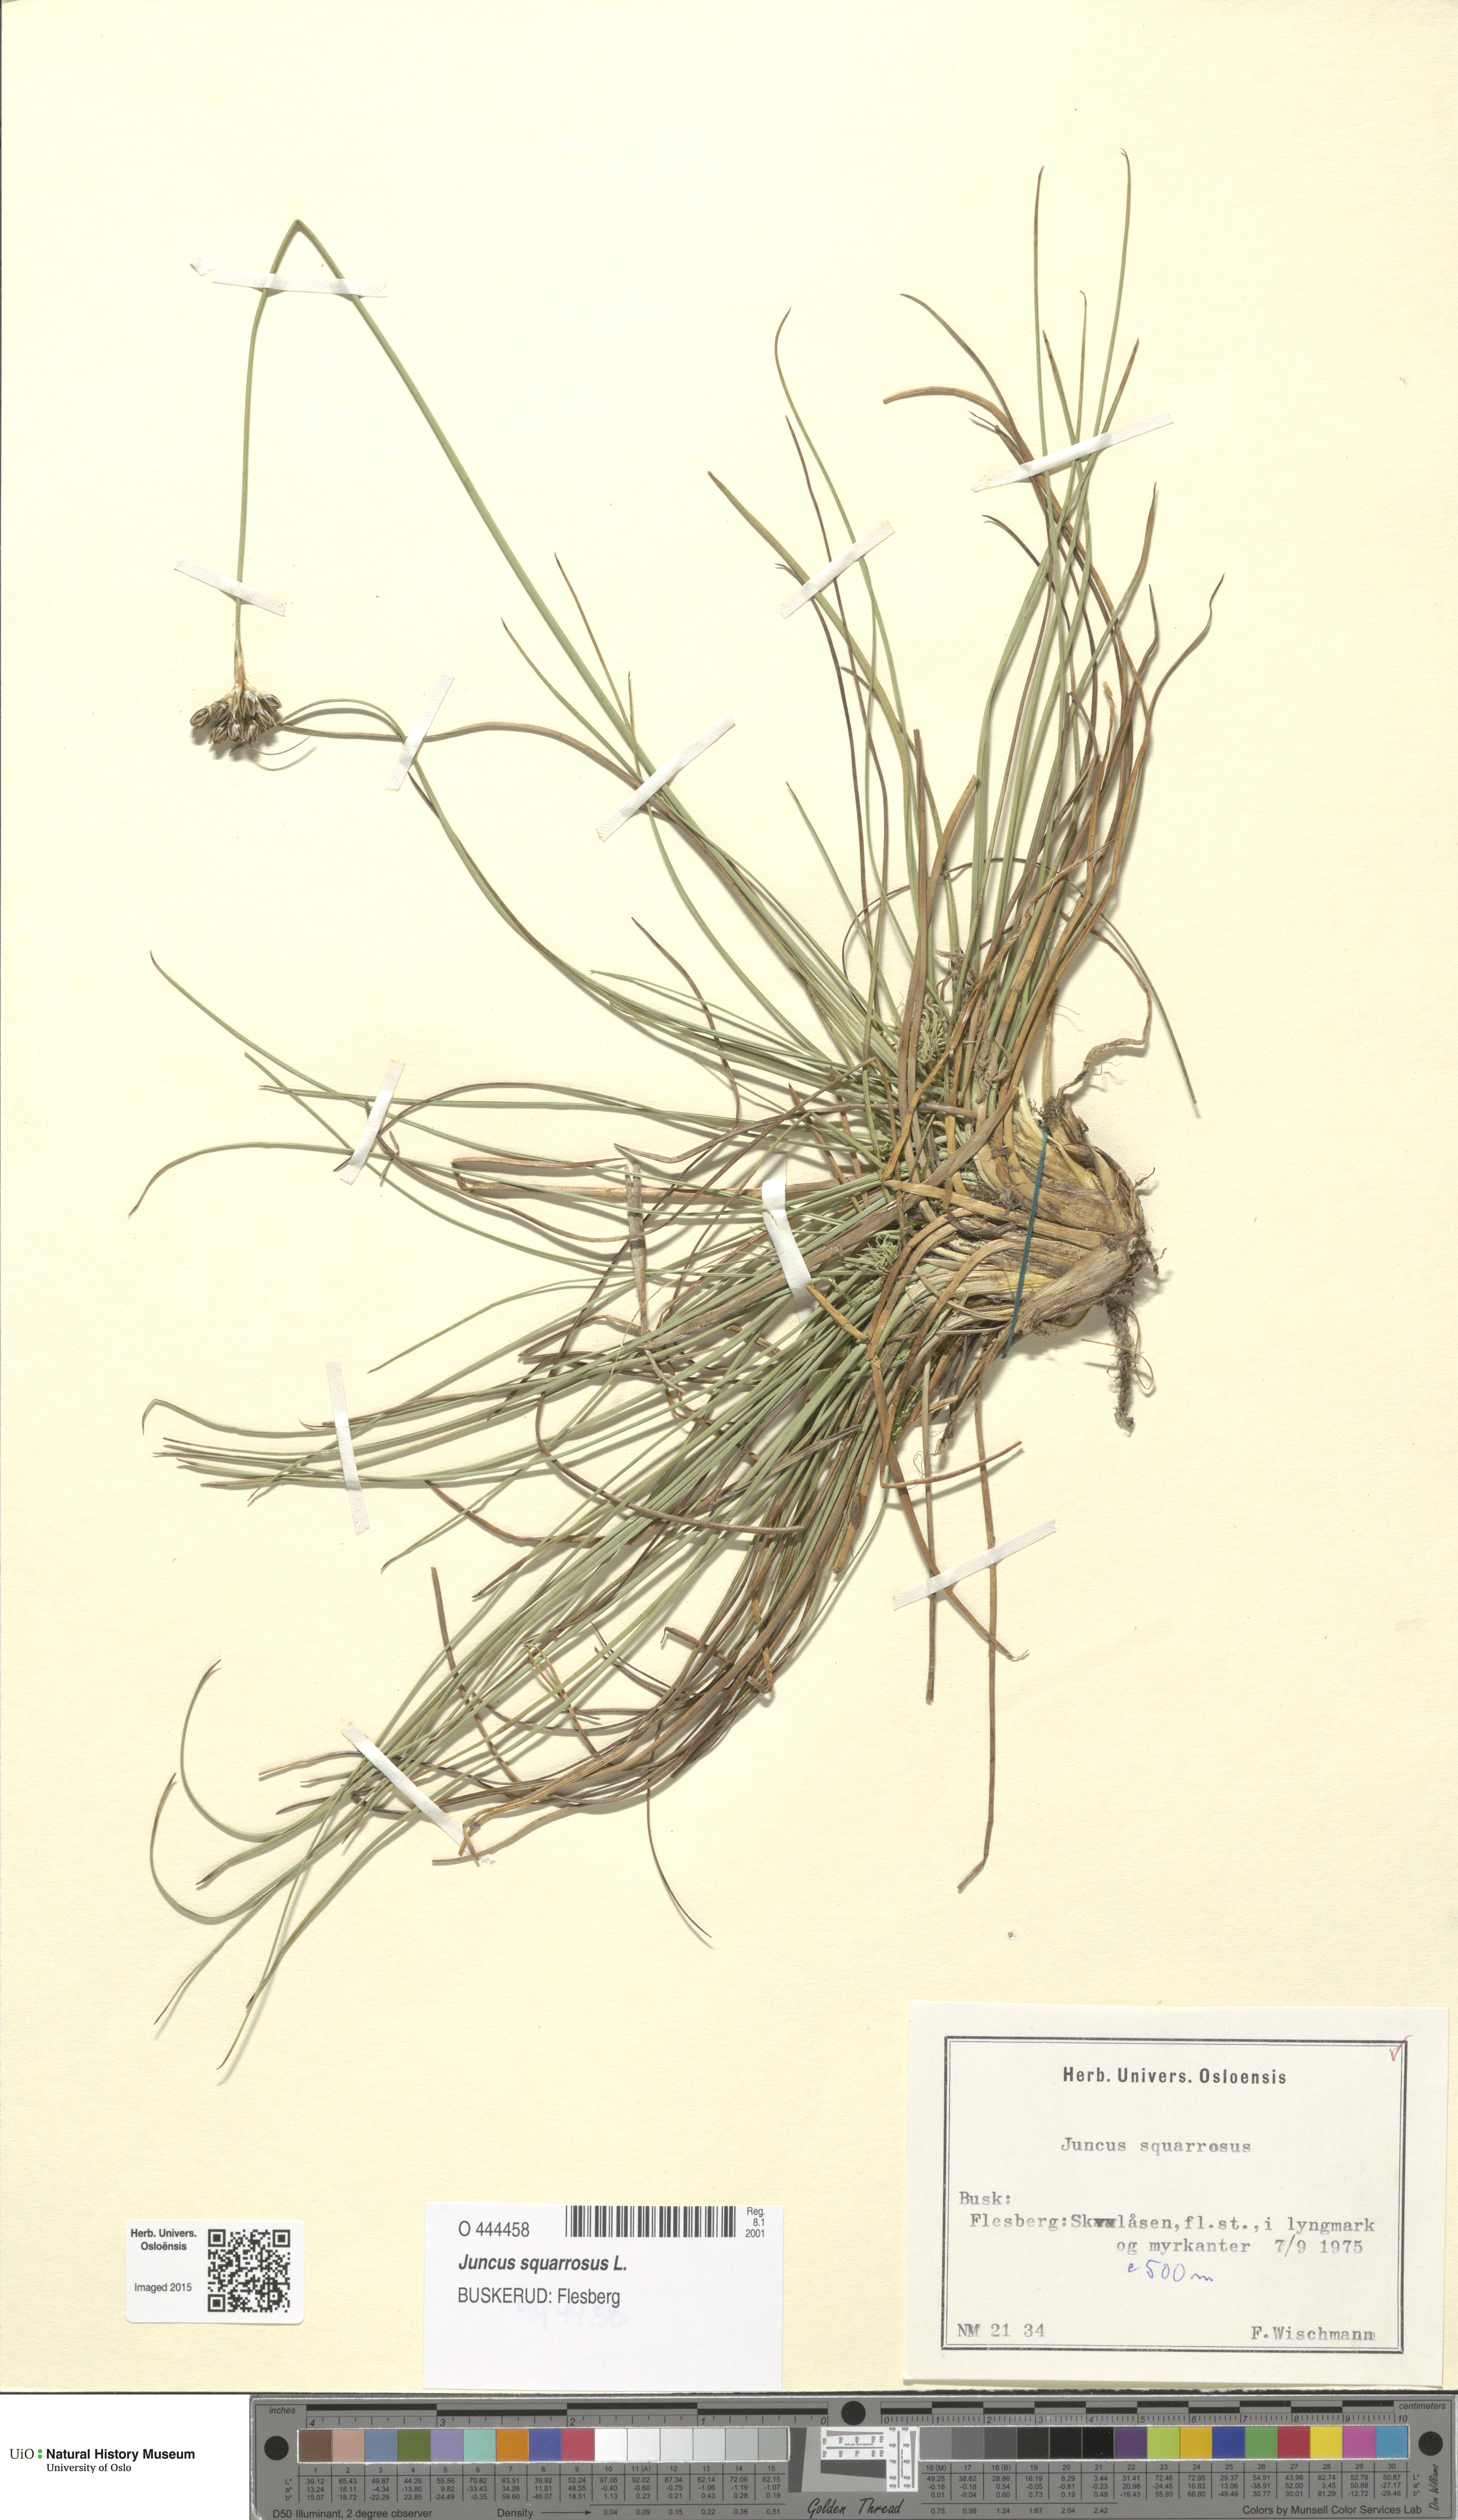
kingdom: Plantae
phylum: Tracheophyta
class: Liliopsida
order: Poales
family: Juncaceae
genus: Juncus
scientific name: Juncus squarrosus
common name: Heath rush
